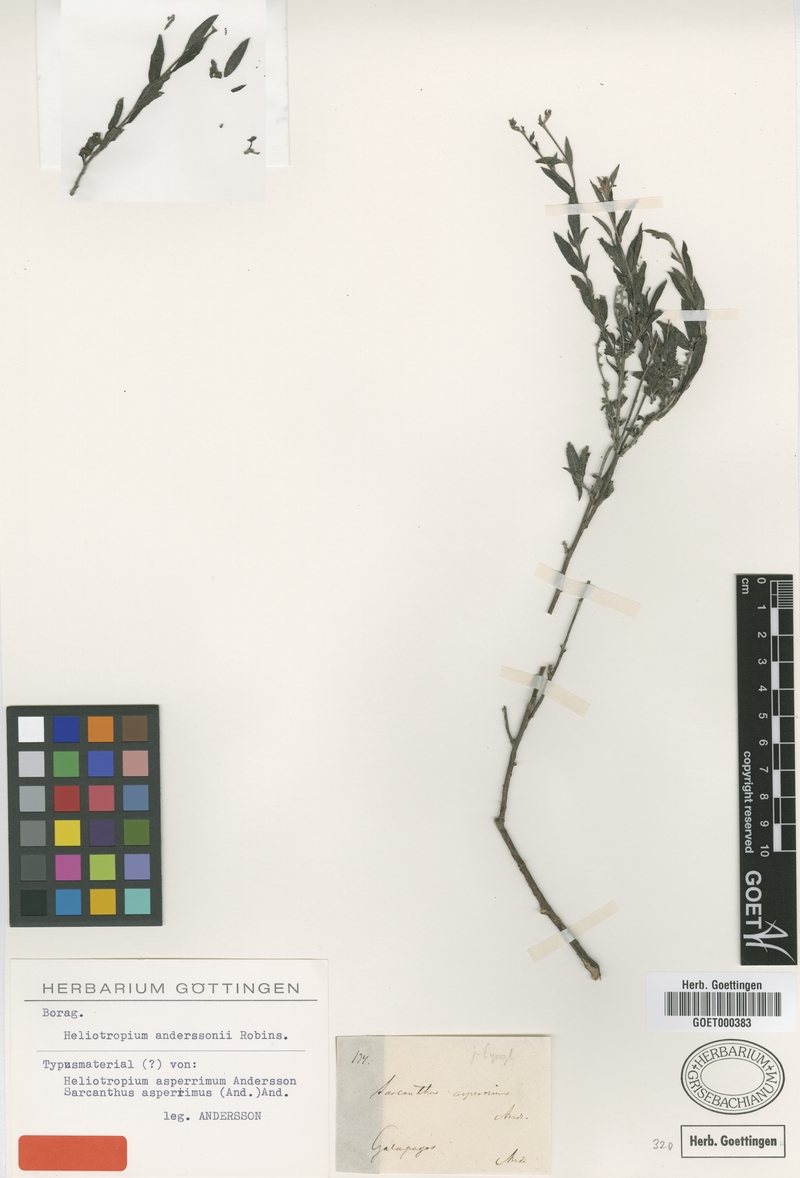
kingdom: Plantae
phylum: Tracheophyta
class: Magnoliopsida
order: Boraginales
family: Heliotropiaceae
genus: Euploca
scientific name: Euploca asperrima
